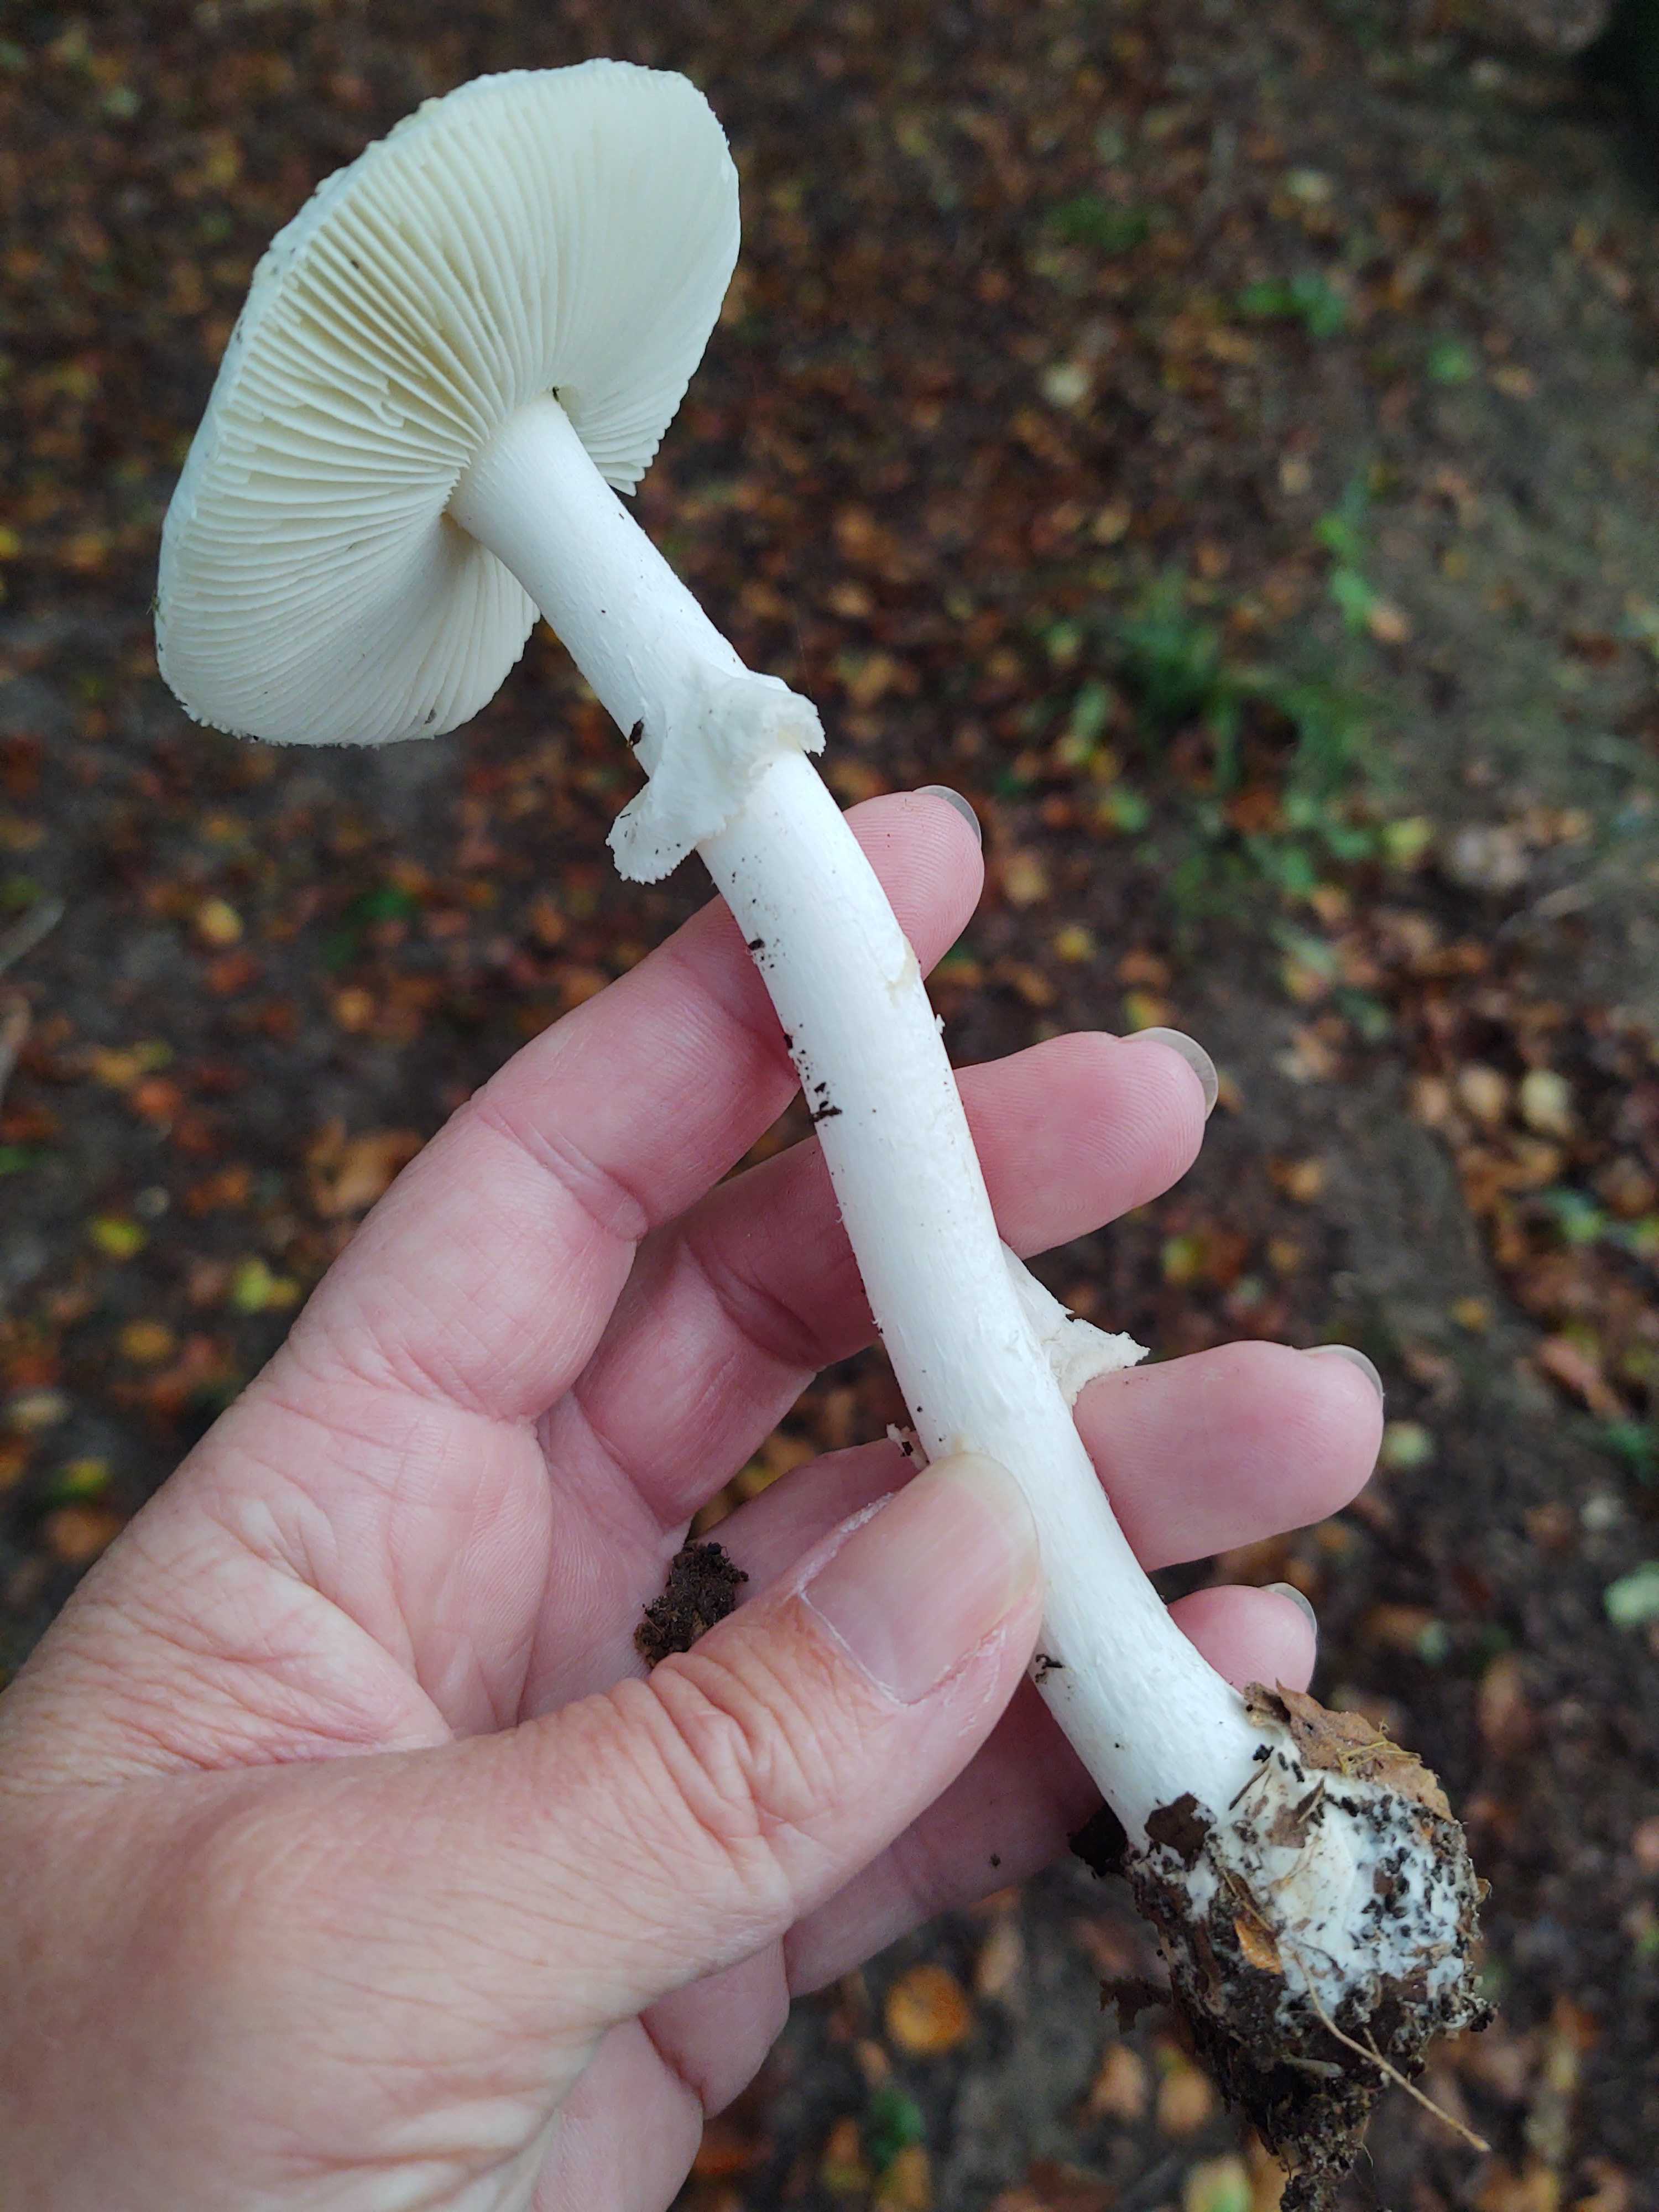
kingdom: Fungi
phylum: Basidiomycota
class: Agaricomycetes
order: Agaricales
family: Amanitaceae
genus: Amanita
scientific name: Amanita citrina
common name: kugleknoldet fluesvamp
